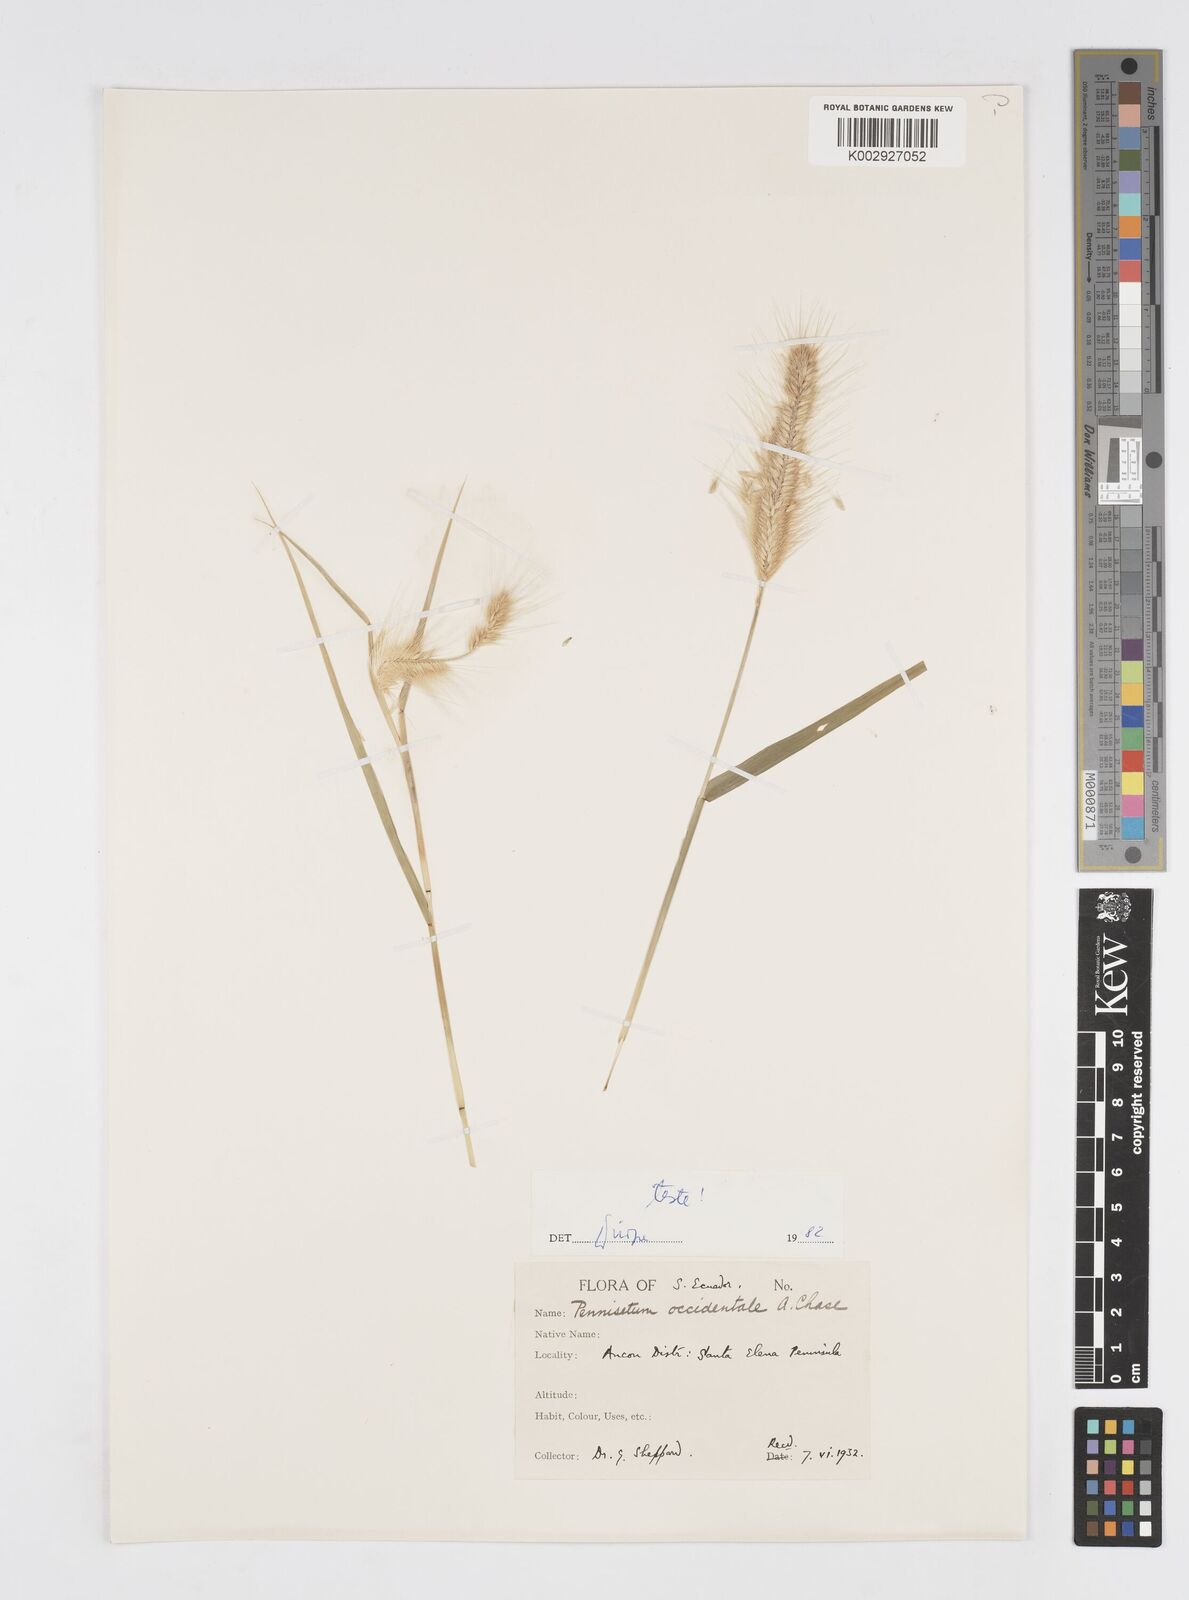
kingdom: Plantae
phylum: Tracheophyta
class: Liliopsida
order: Poales
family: Poaceae
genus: Cenchrus
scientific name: Cenchrus occidentalis
